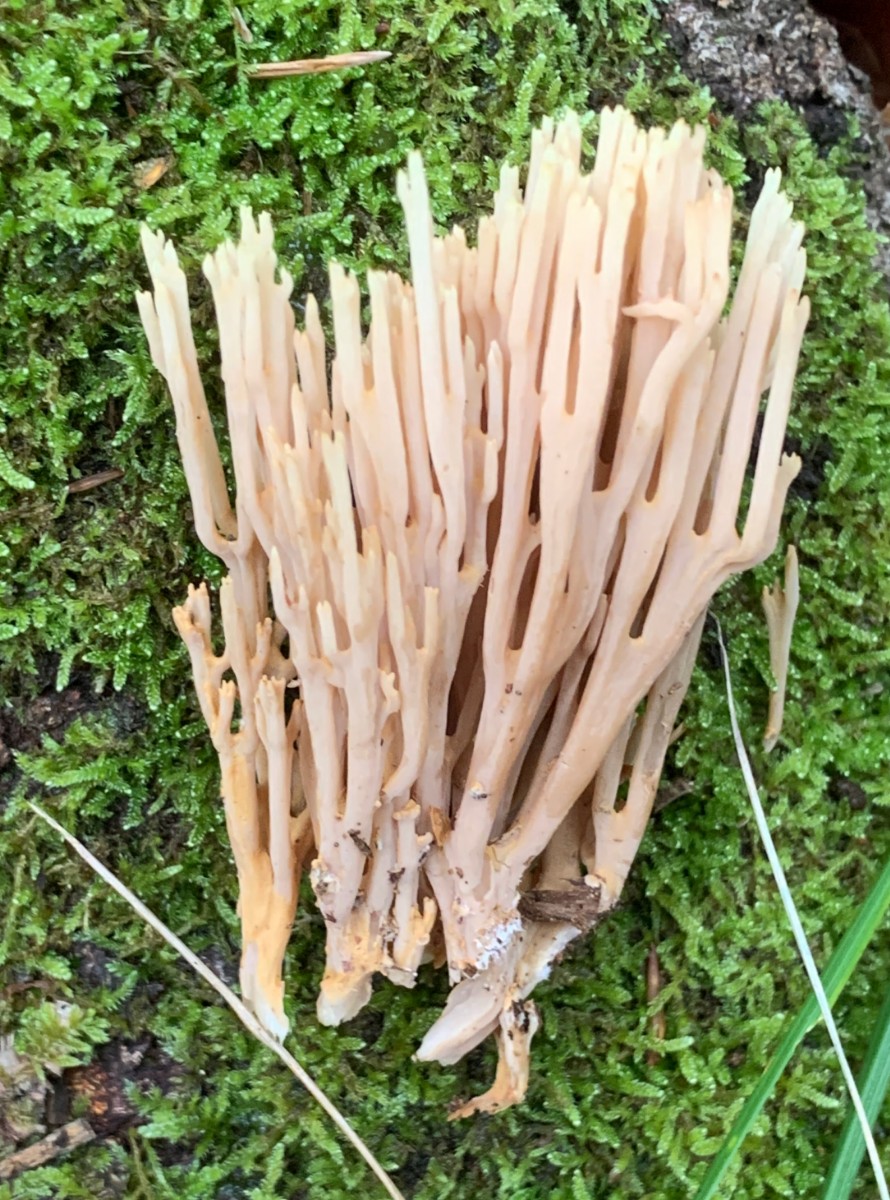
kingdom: Fungi
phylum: Basidiomycota
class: Agaricomycetes
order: Gomphales
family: Gomphaceae
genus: Ramaria
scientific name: Ramaria stricta
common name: rank koralsvamp
